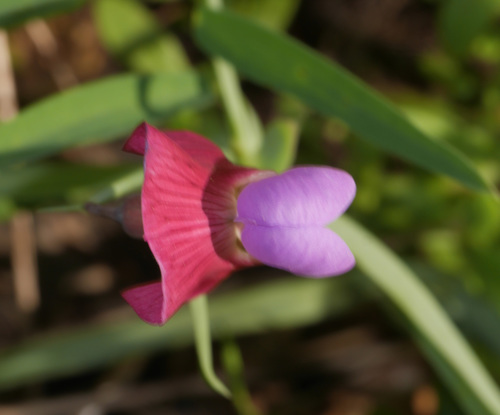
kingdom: Plantae
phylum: Tracheophyta
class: Magnoliopsida
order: Fabales
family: Fabaceae
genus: Lathyrus
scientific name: Lathyrus clymenum
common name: Spanish vetchling
